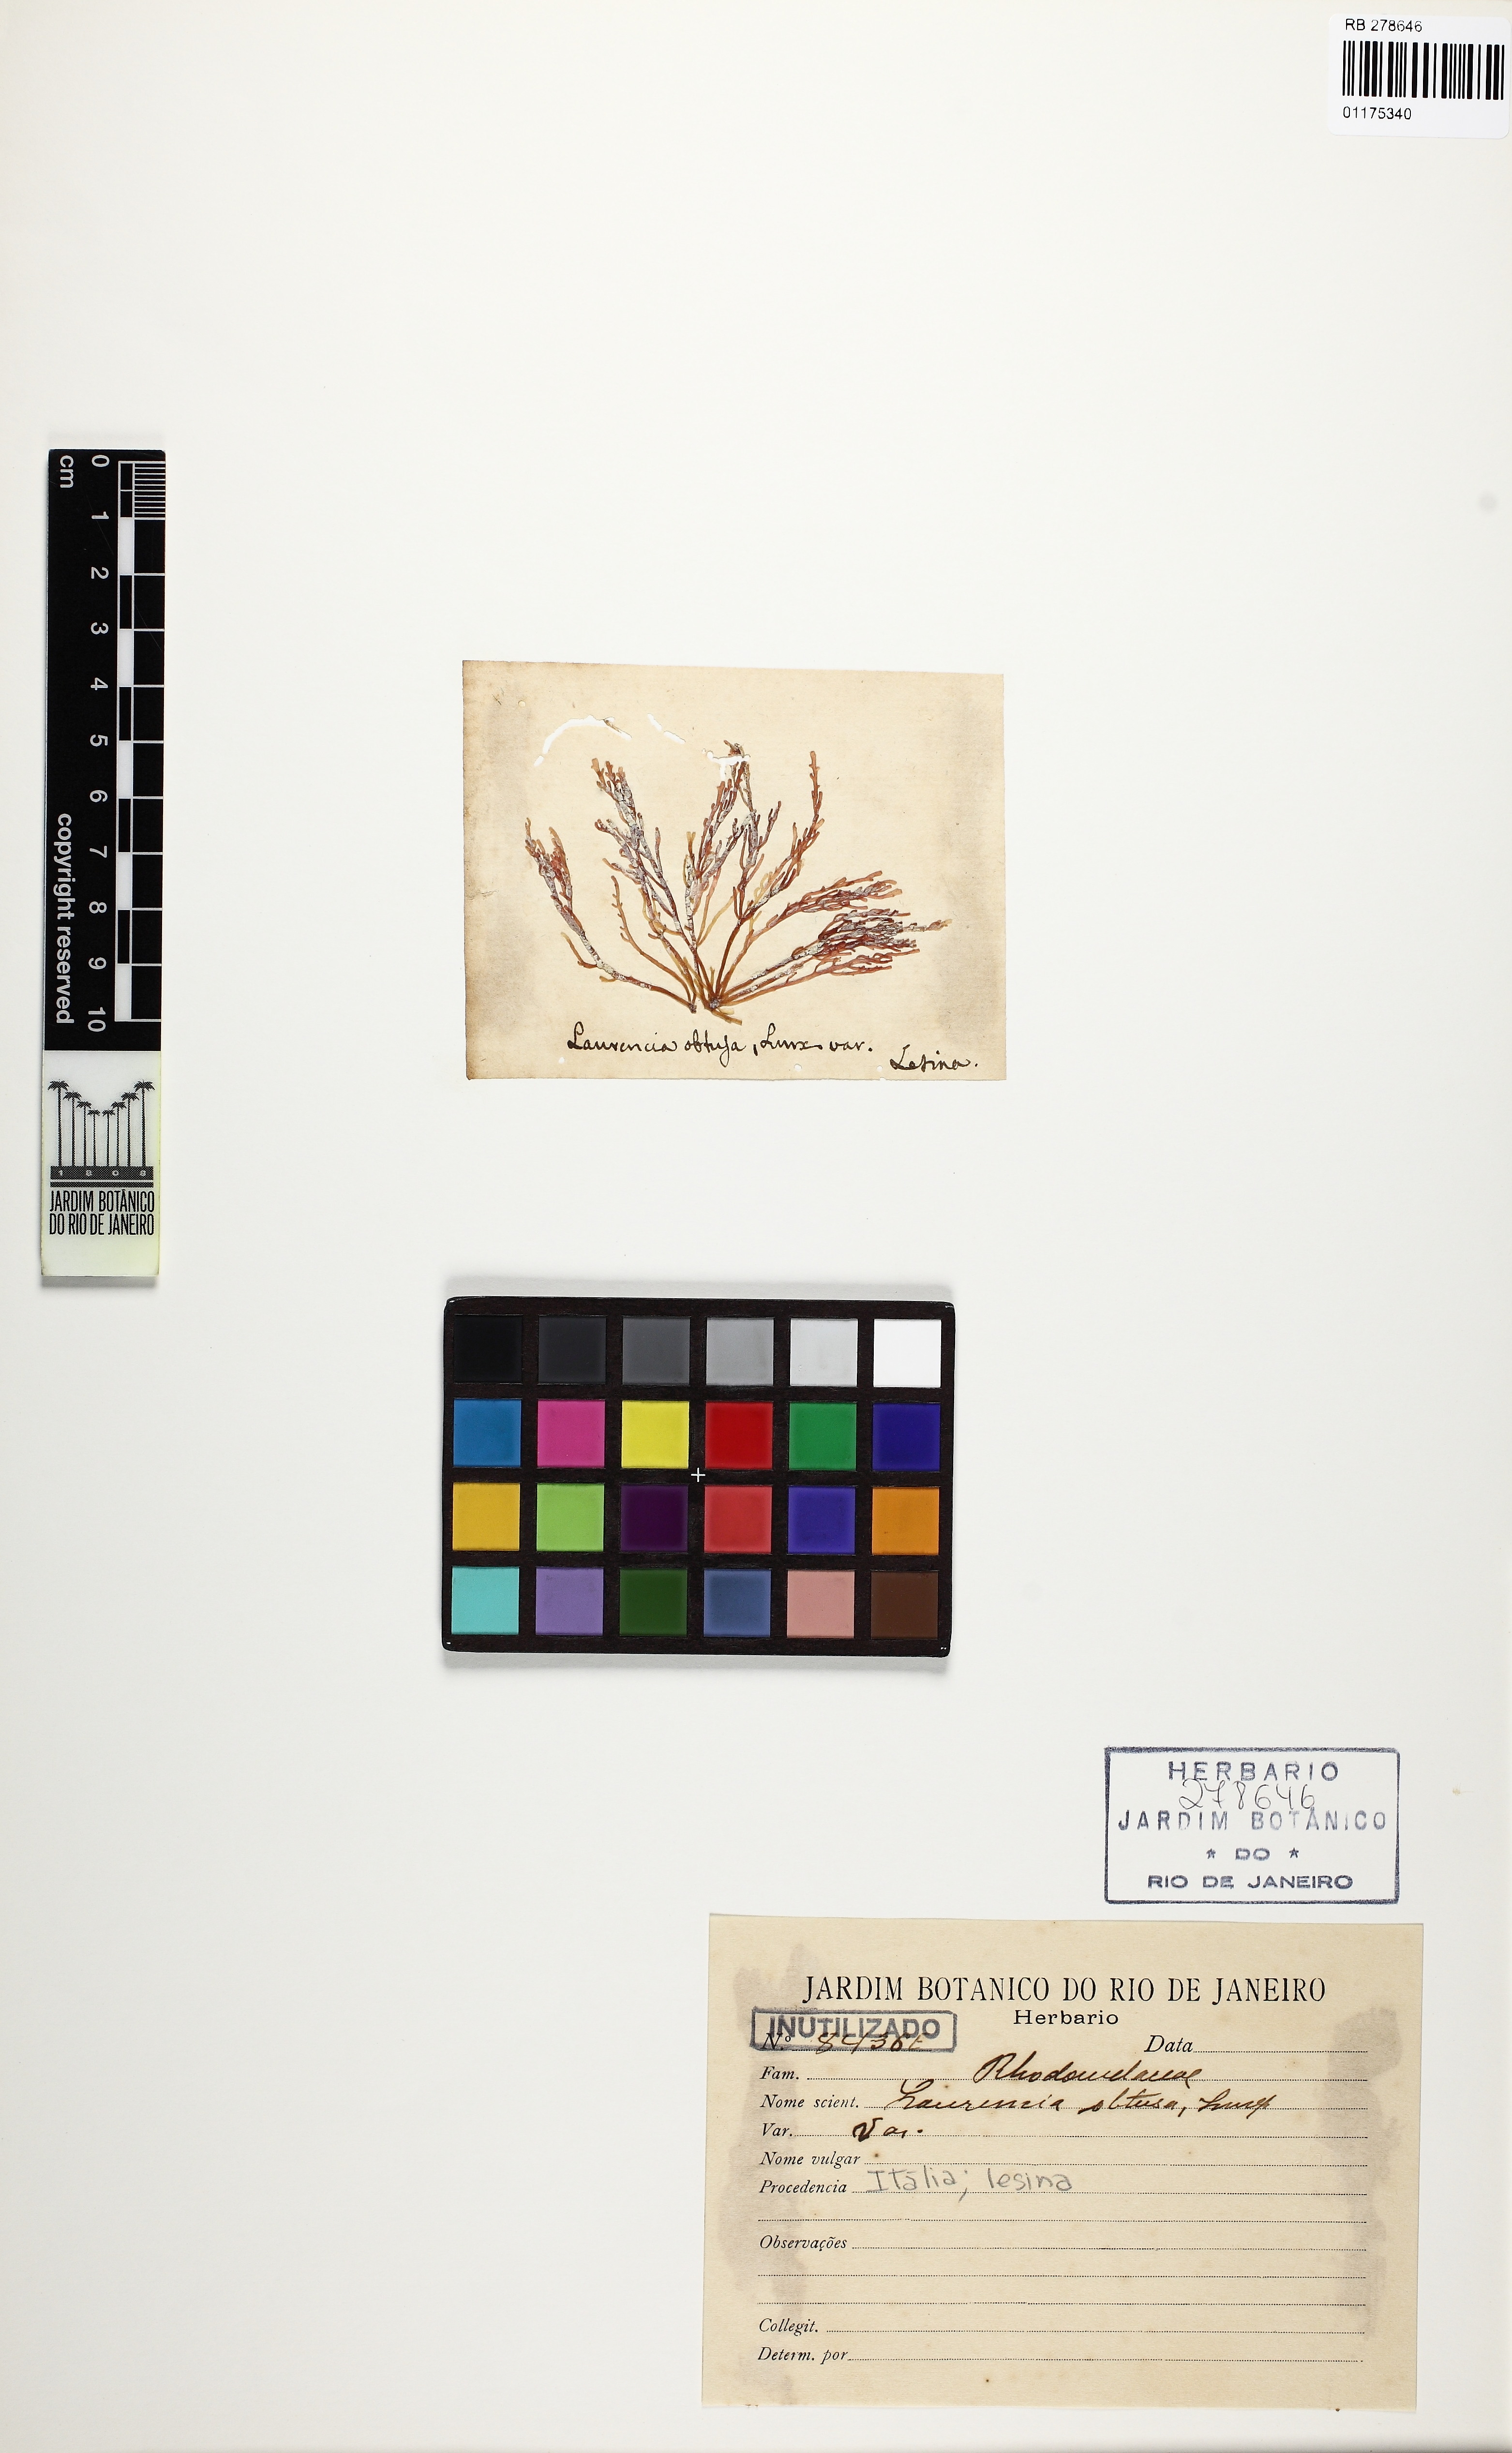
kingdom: Plantae
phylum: Rhodophyta
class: Florideophyceae
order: Ceramiales
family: Rhodomelaceae
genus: Laurencia
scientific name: Laurencia dendroidea
